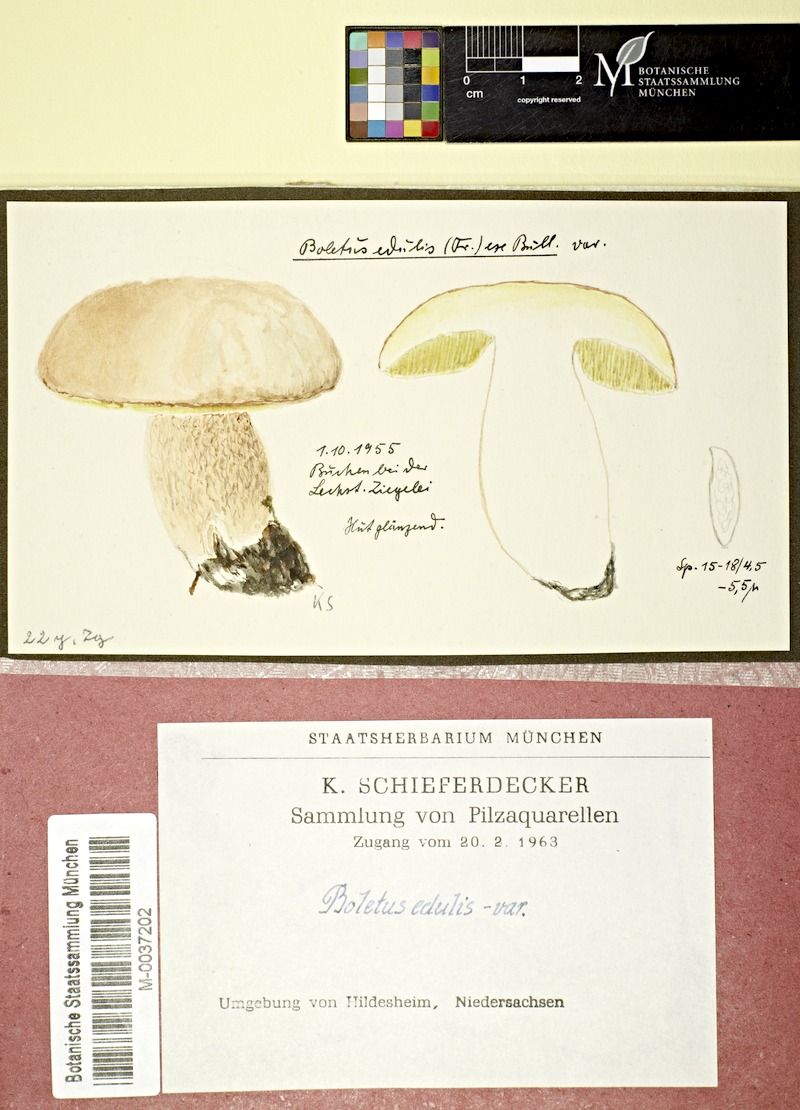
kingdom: Fungi
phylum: Basidiomycota
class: Agaricomycetes
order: Boletales
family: Boletaceae
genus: Boletus
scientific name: Boletus reticulatus
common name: Summer bolete
